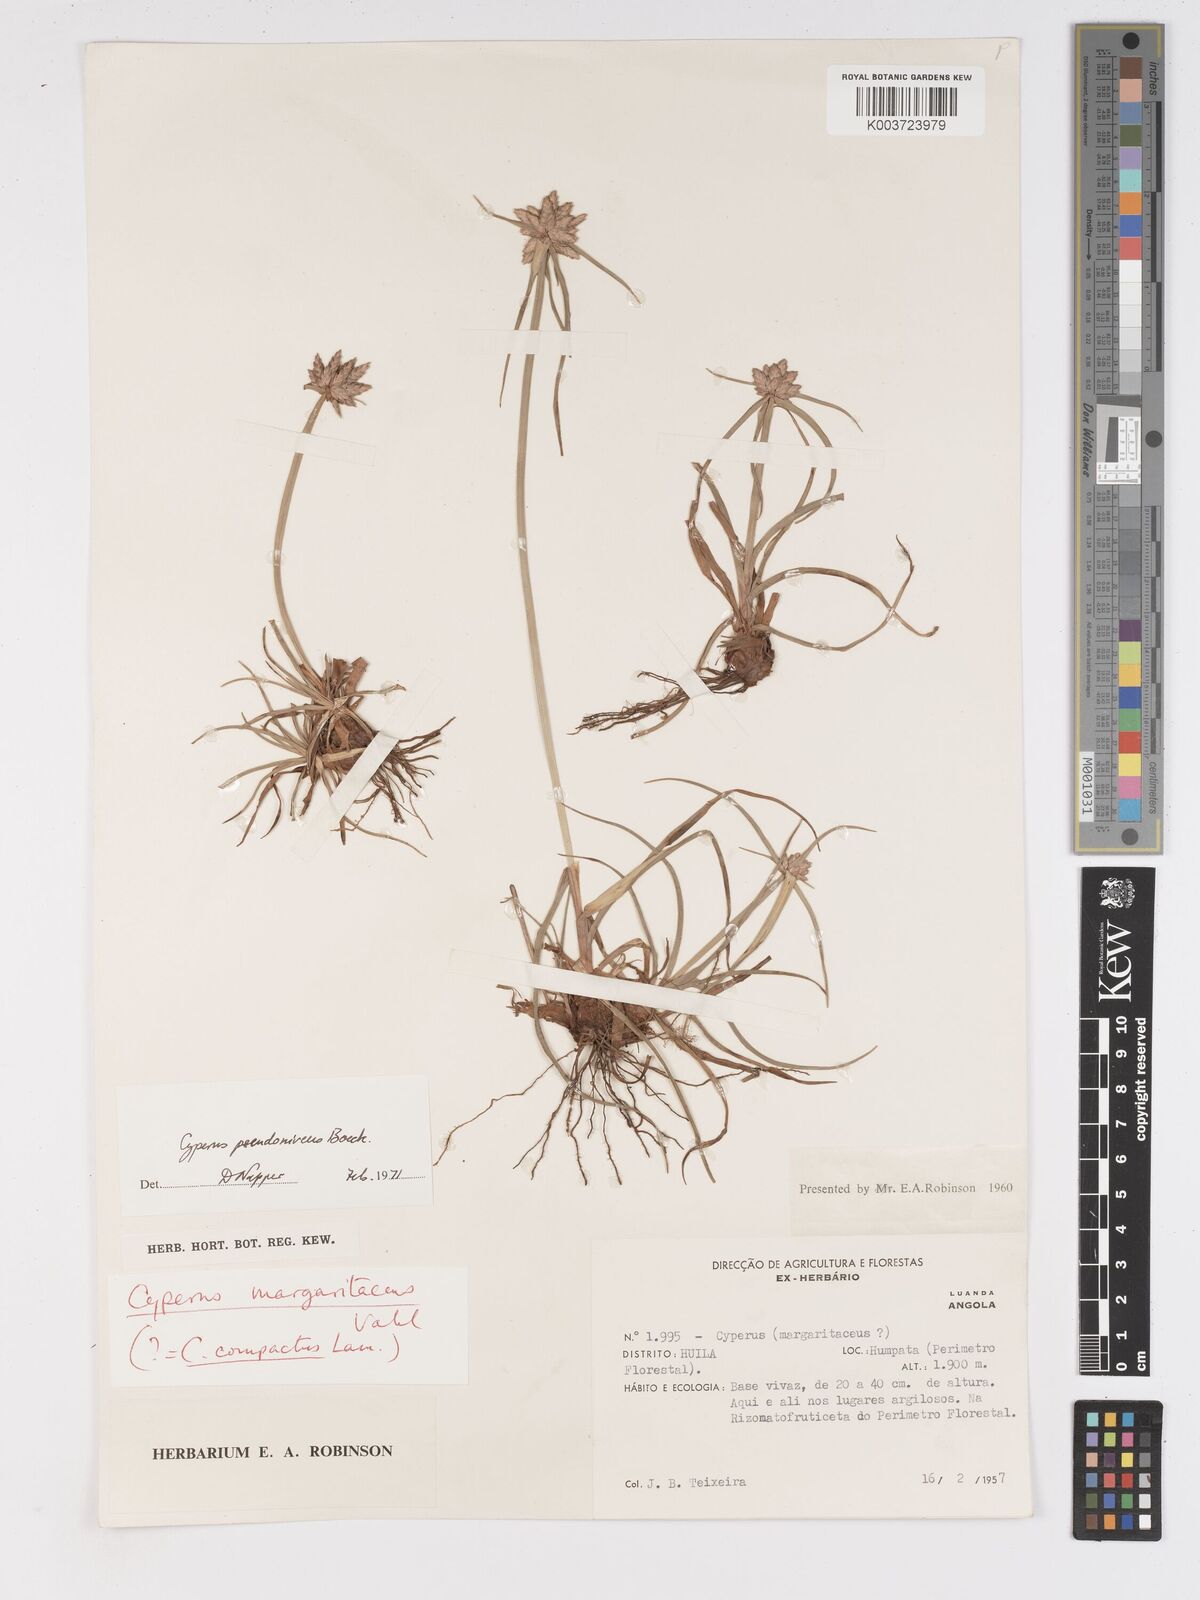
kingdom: Plantae
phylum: Tracheophyta
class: Liliopsida
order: Poales
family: Cyperaceae
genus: Cyperus
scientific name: Cyperus margaritaceus
